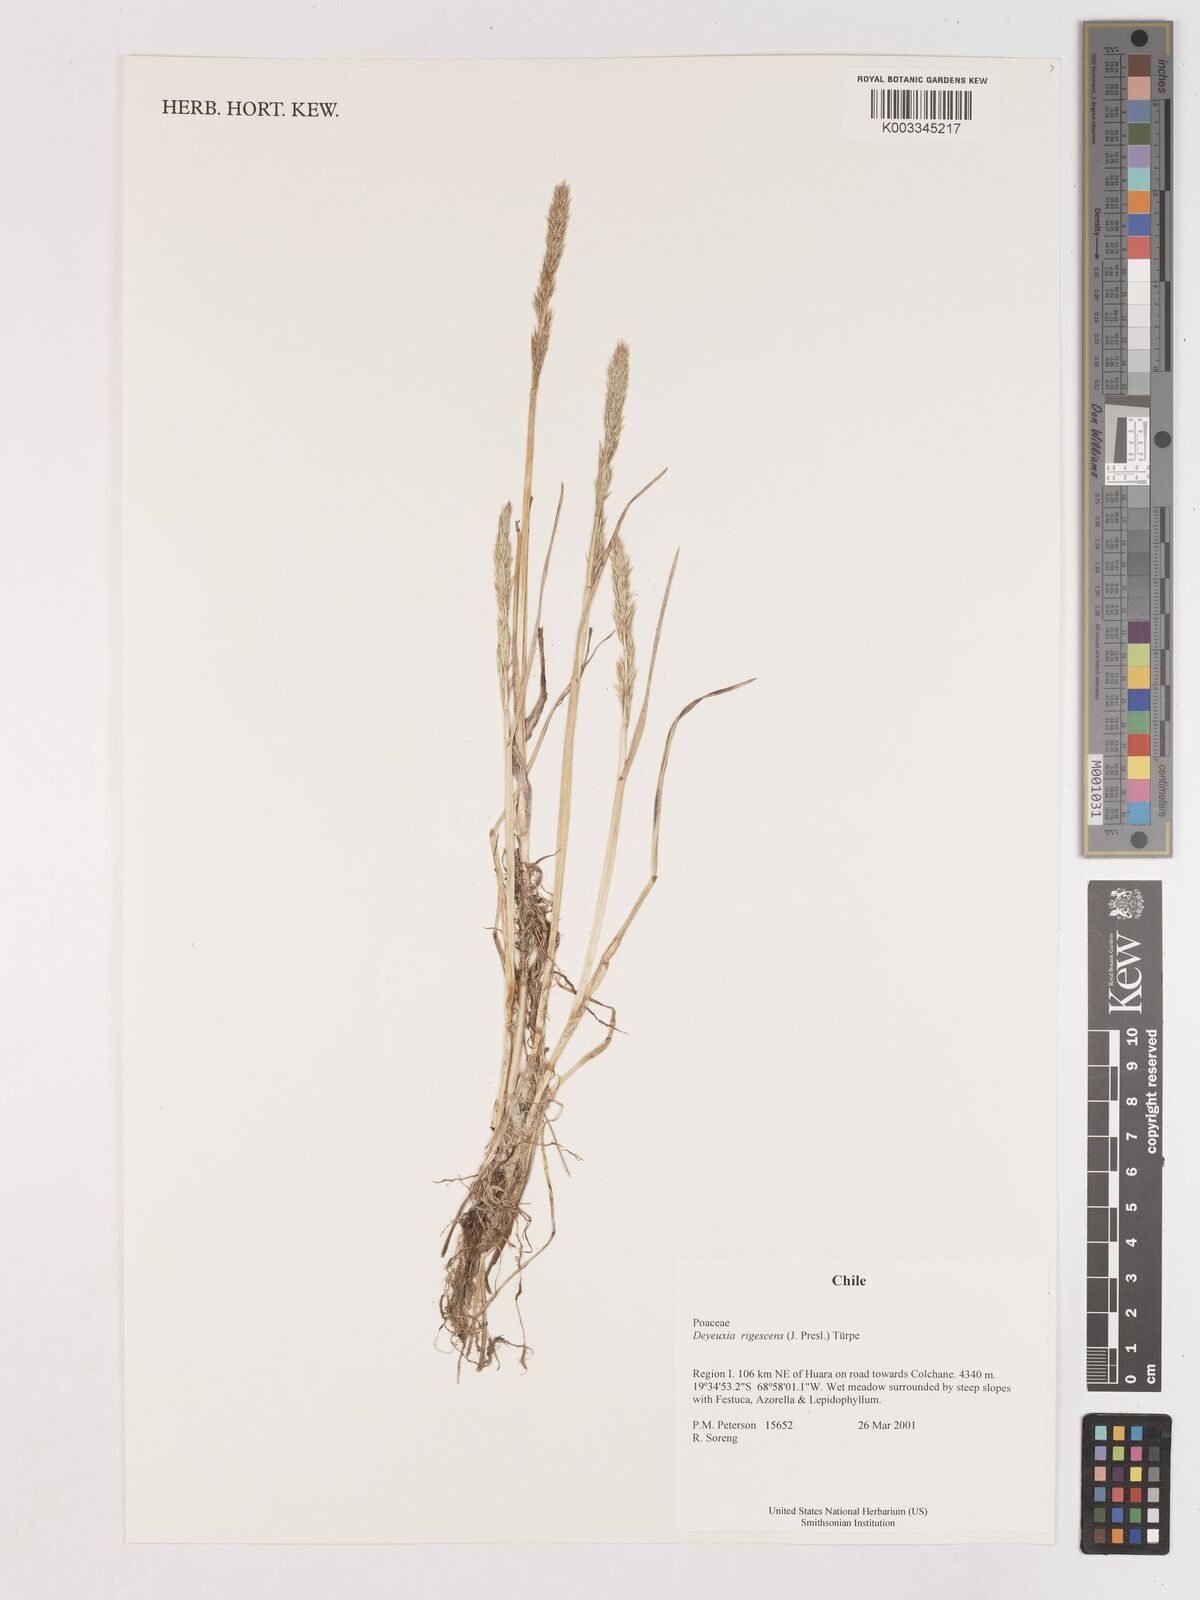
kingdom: Plantae
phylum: Tracheophyta
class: Liliopsida
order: Poales
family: Poaceae
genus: Cinnagrostis
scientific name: Cinnagrostis rigescens
